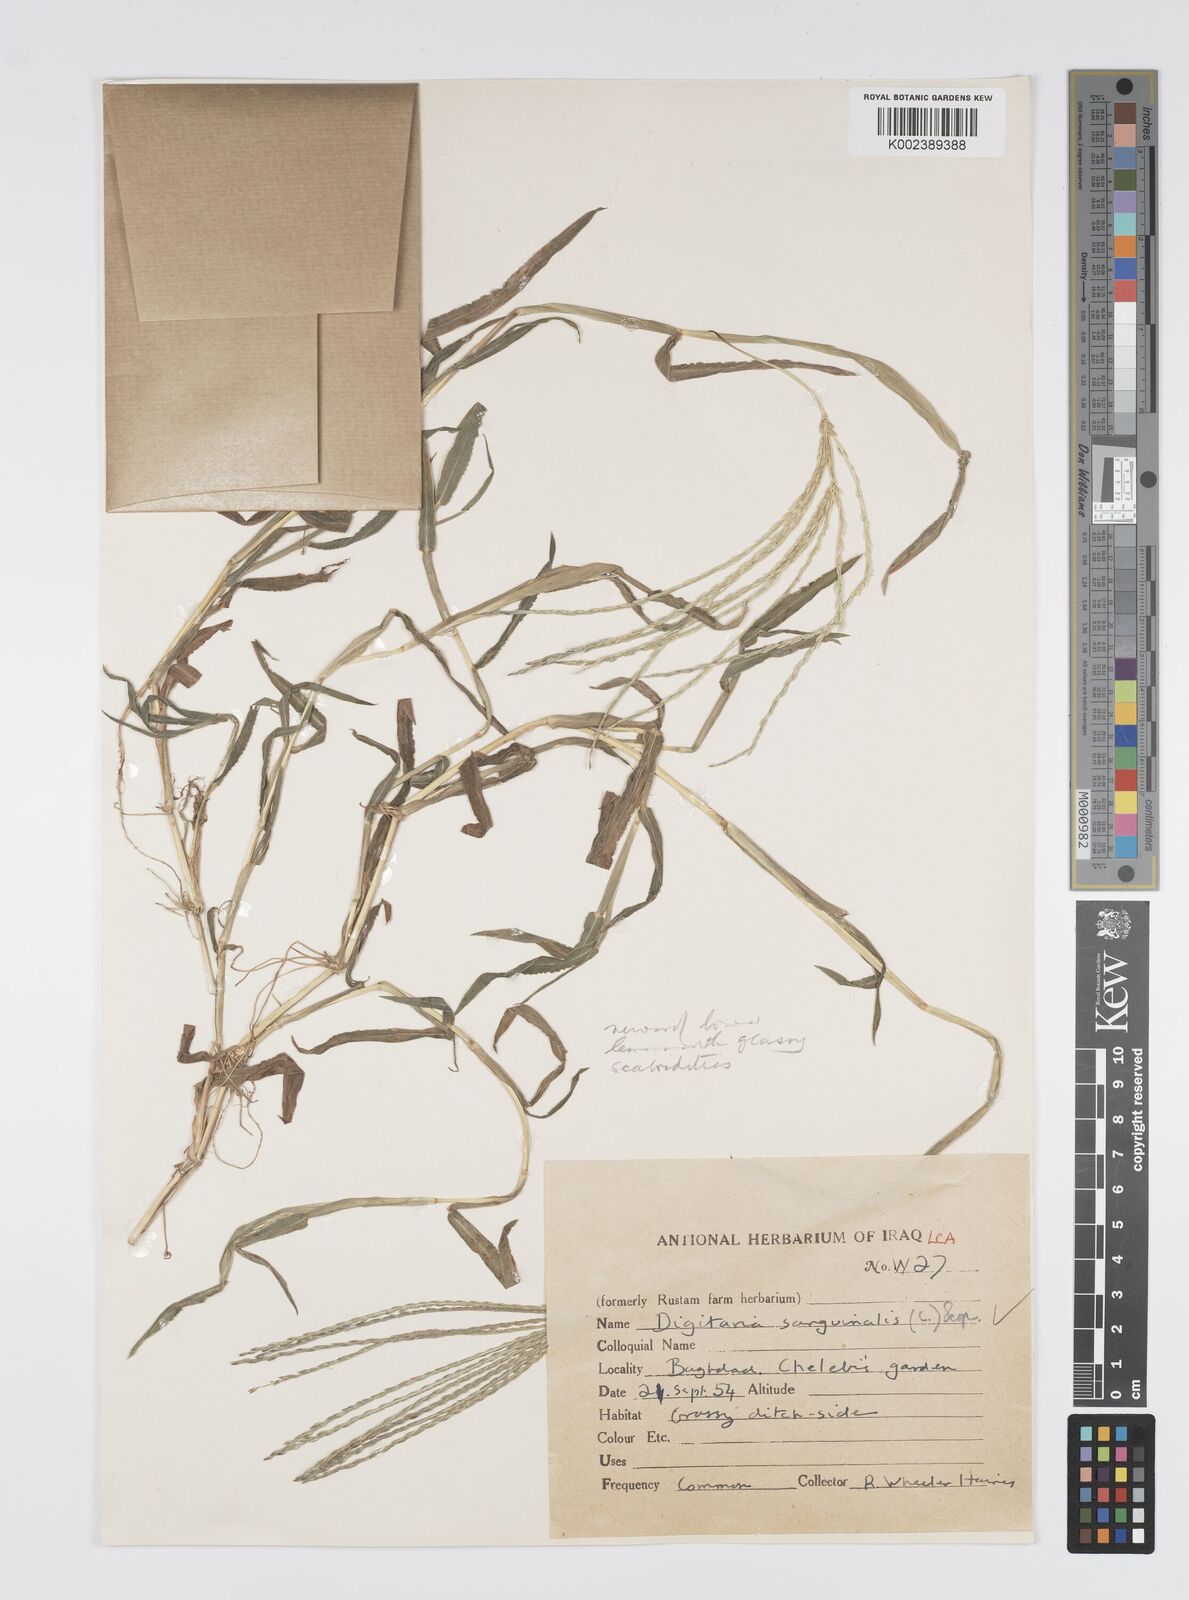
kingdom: Plantae
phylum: Tracheophyta
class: Liliopsida
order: Poales
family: Poaceae
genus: Digitaria
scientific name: Digitaria sanguinalis
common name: Hairy crabgrass
